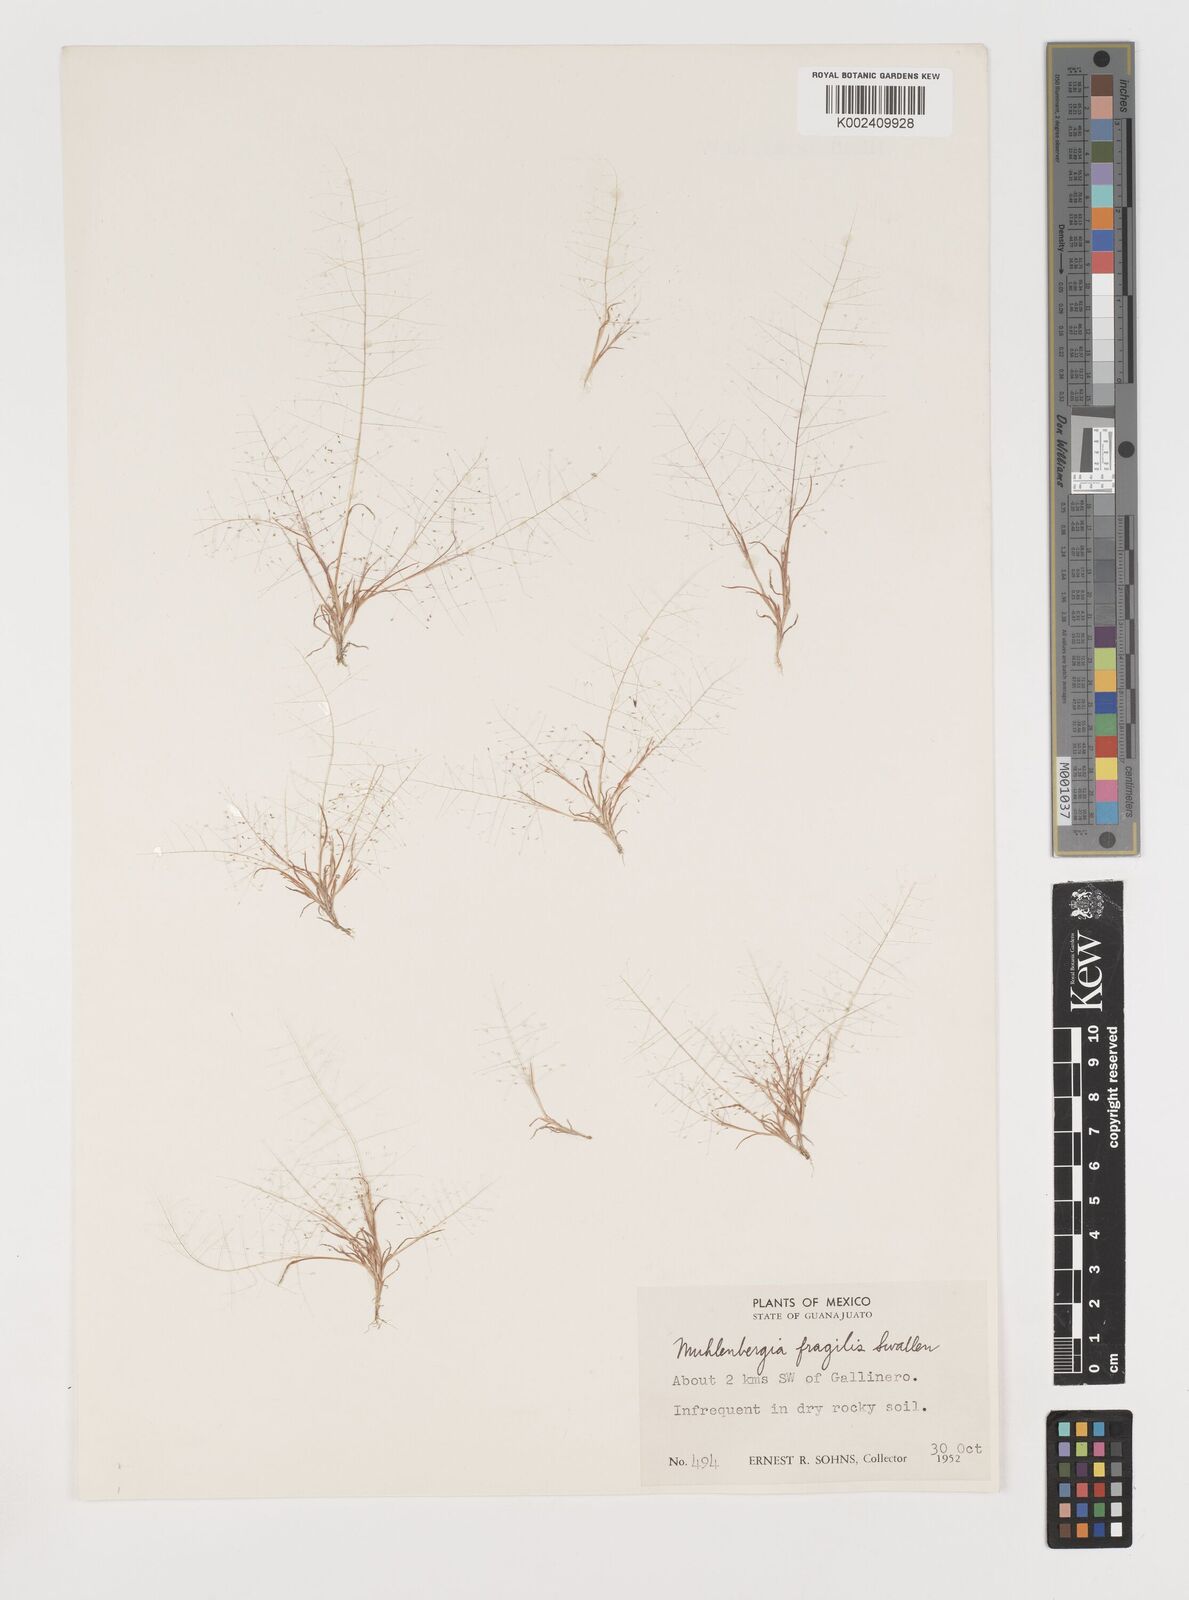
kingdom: Plantae
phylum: Tracheophyta
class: Liliopsida
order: Poales
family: Poaceae
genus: Muhlenbergia
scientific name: Muhlenbergia fragilis
